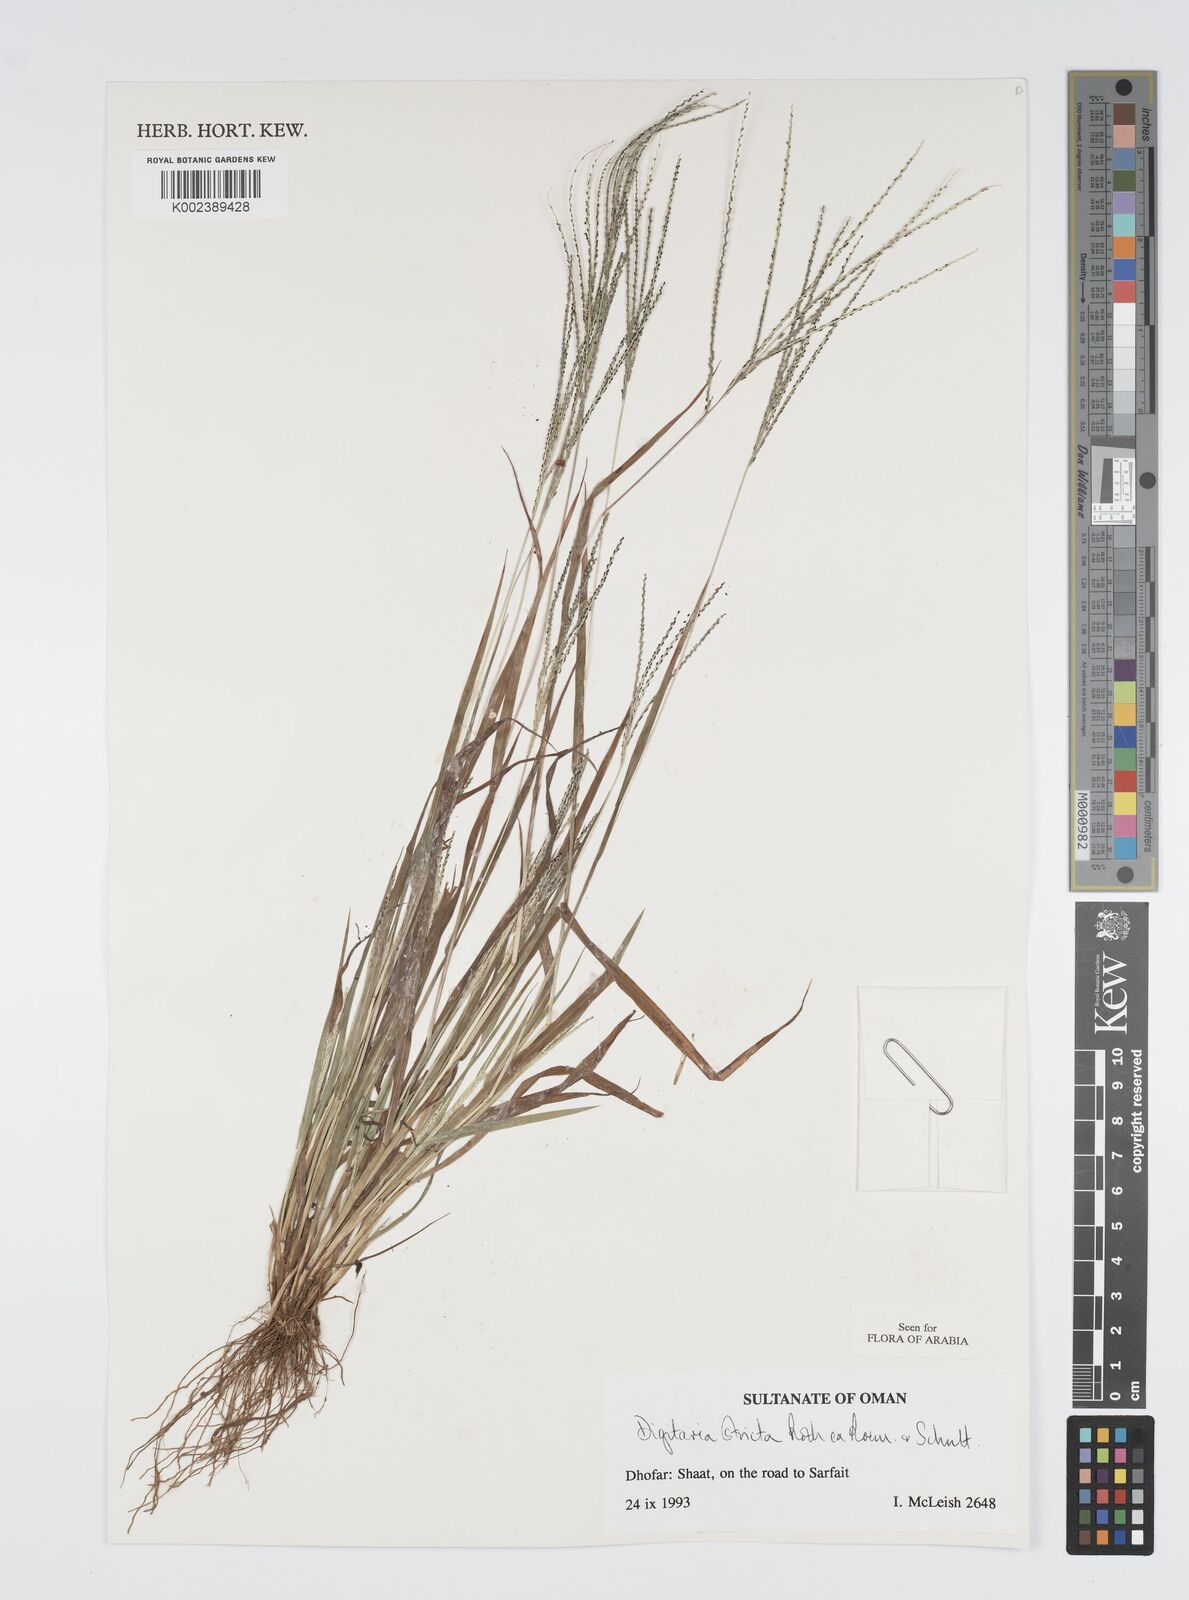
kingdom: Plantae
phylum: Tracheophyta
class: Liliopsida
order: Poales
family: Poaceae
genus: Digitaria
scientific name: Digitaria stricta
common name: Crabgrass
